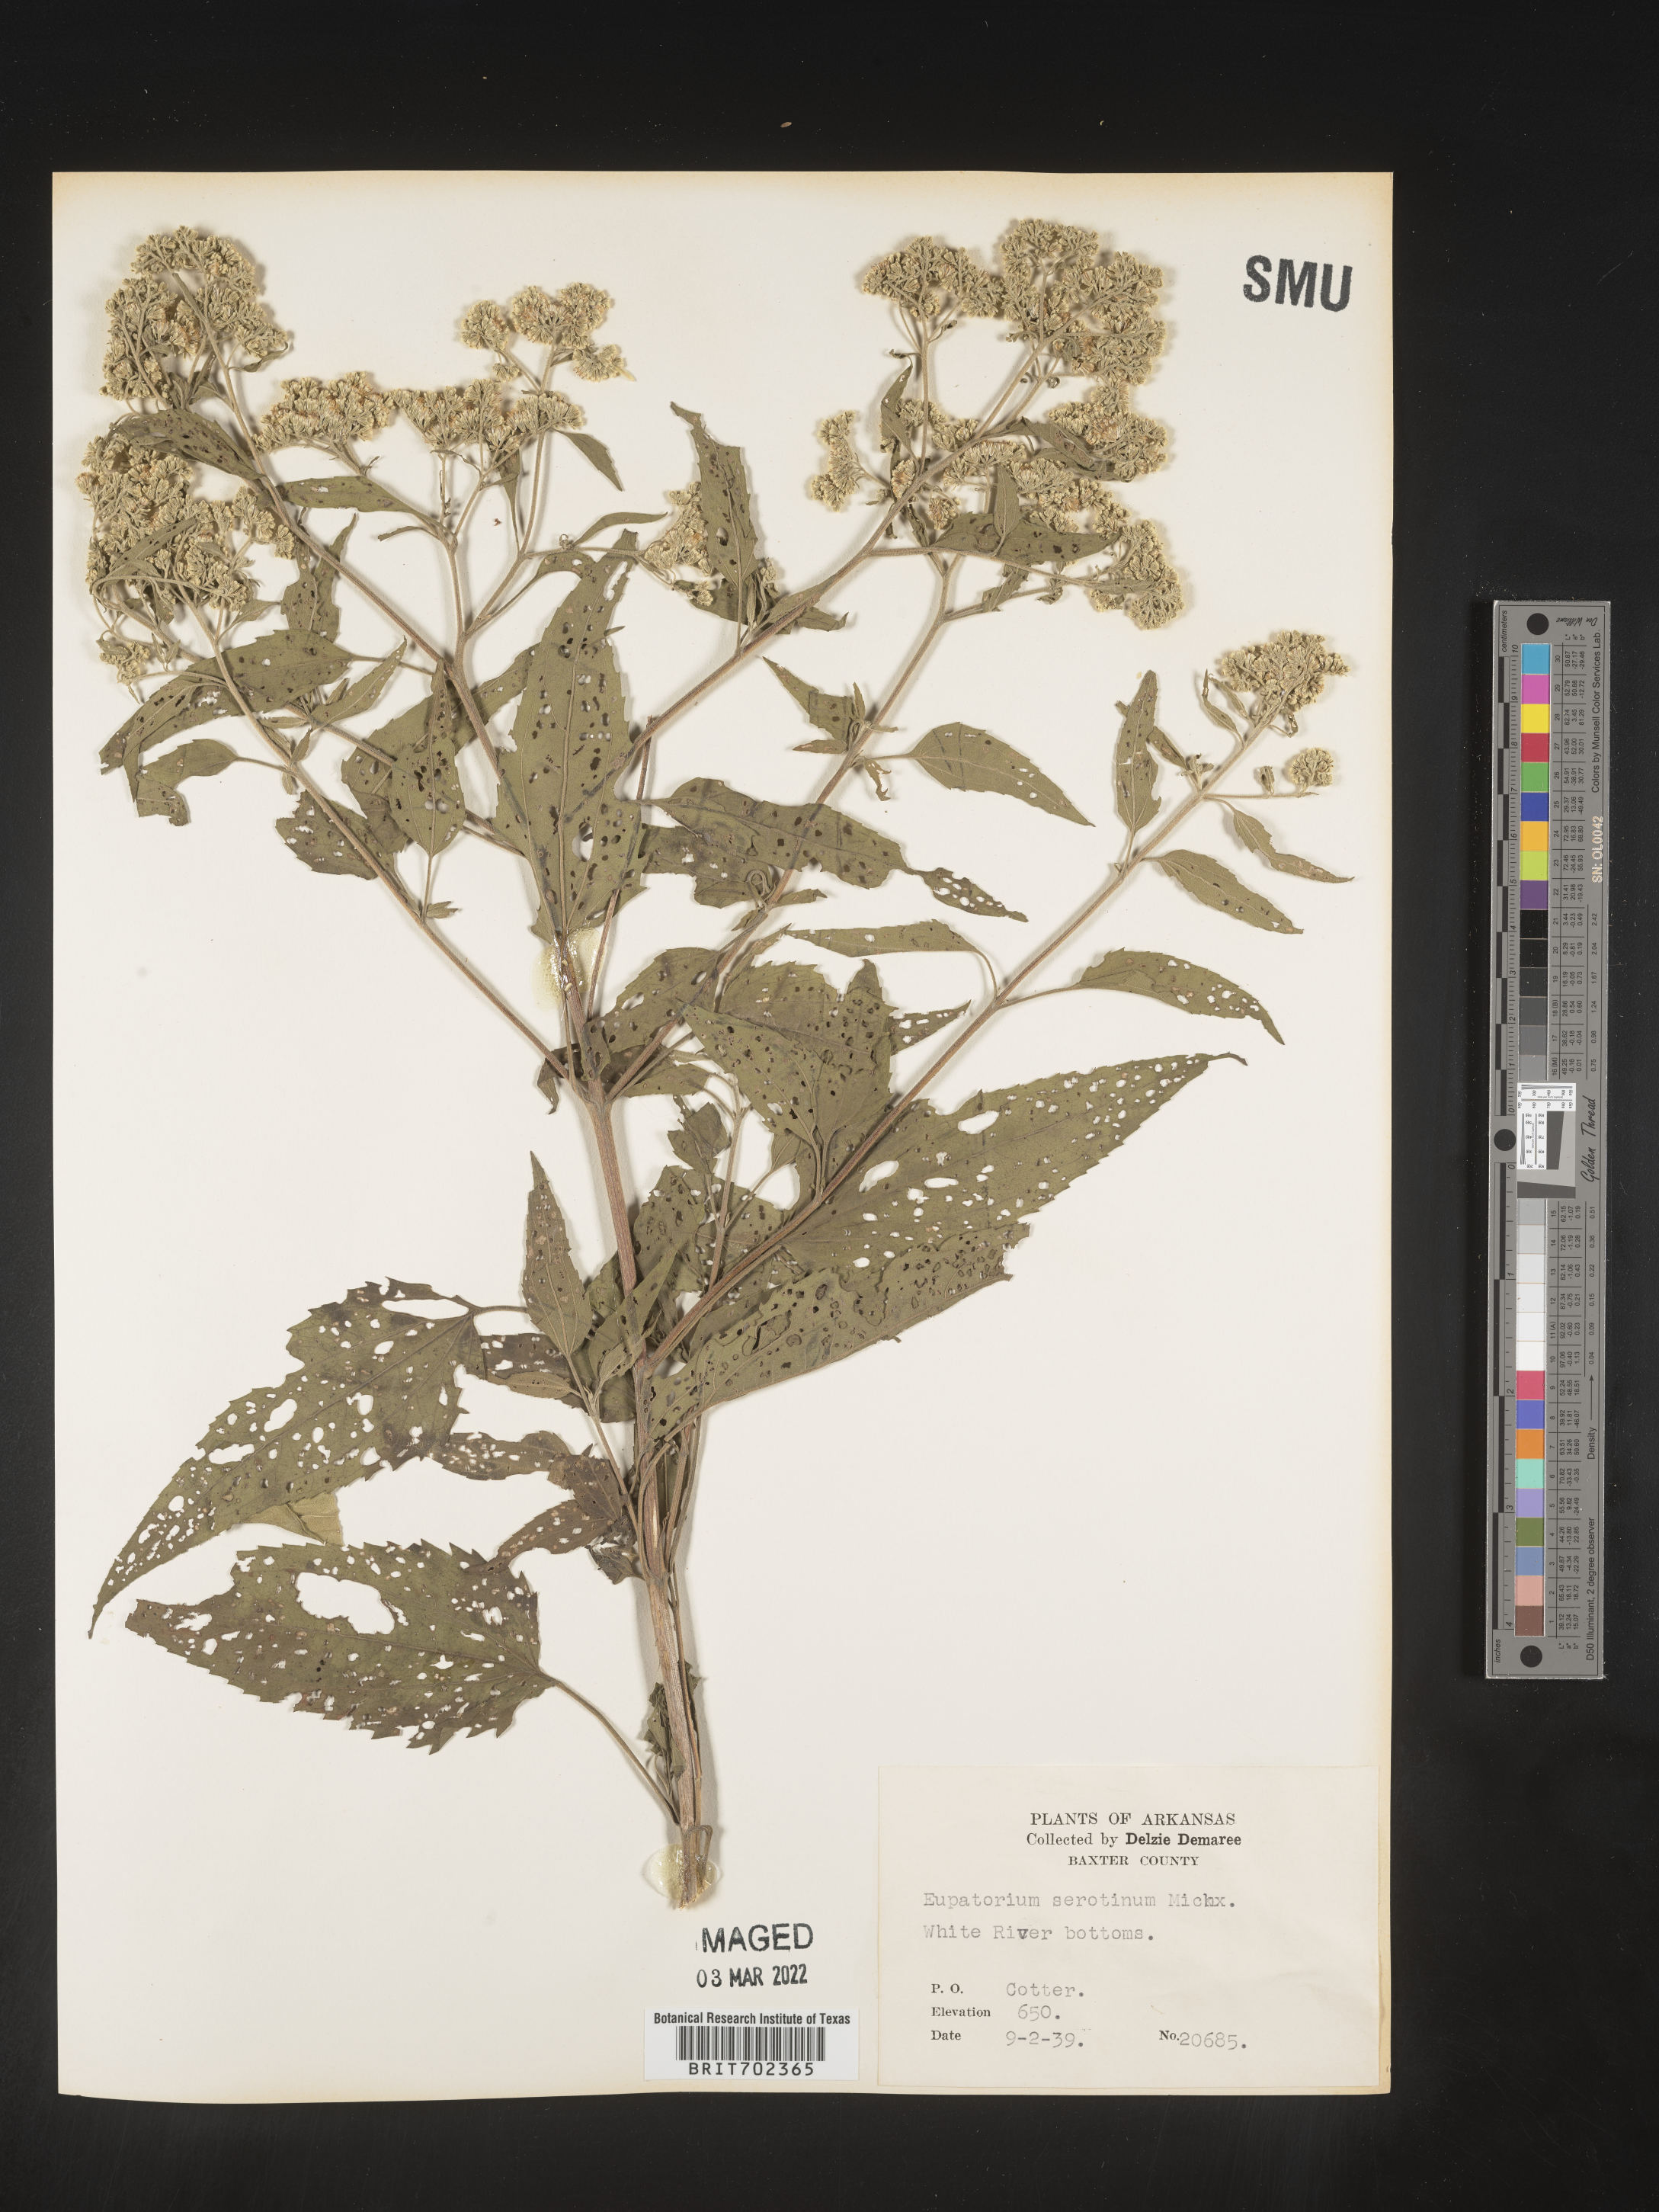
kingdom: Plantae
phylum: Tracheophyta
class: Magnoliopsida
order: Asterales
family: Asteraceae
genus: Eupatorium
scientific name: Eupatorium serotinum
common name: Late boneset
